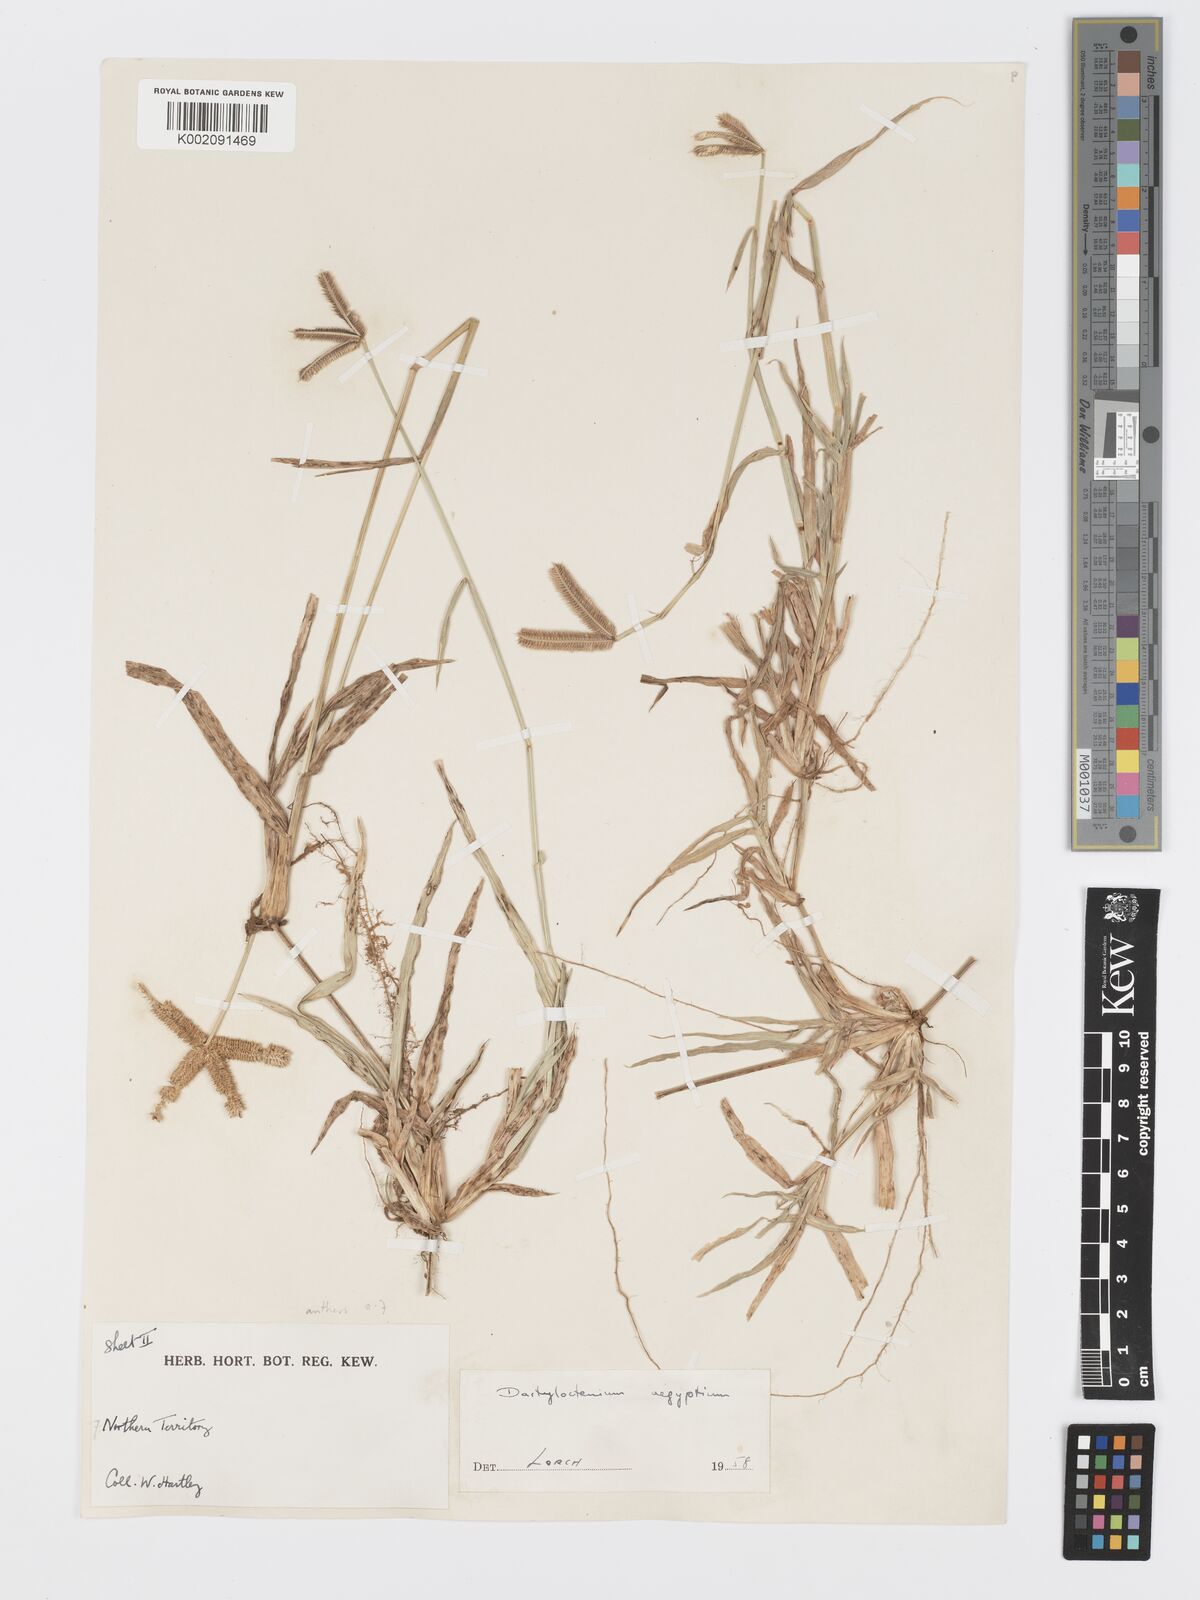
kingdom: Plantae
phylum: Tracheophyta
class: Liliopsida
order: Poales
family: Poaceae
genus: Dactyloctenium
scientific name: Dactyloctenium aegyptium
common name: Egyptian grass
